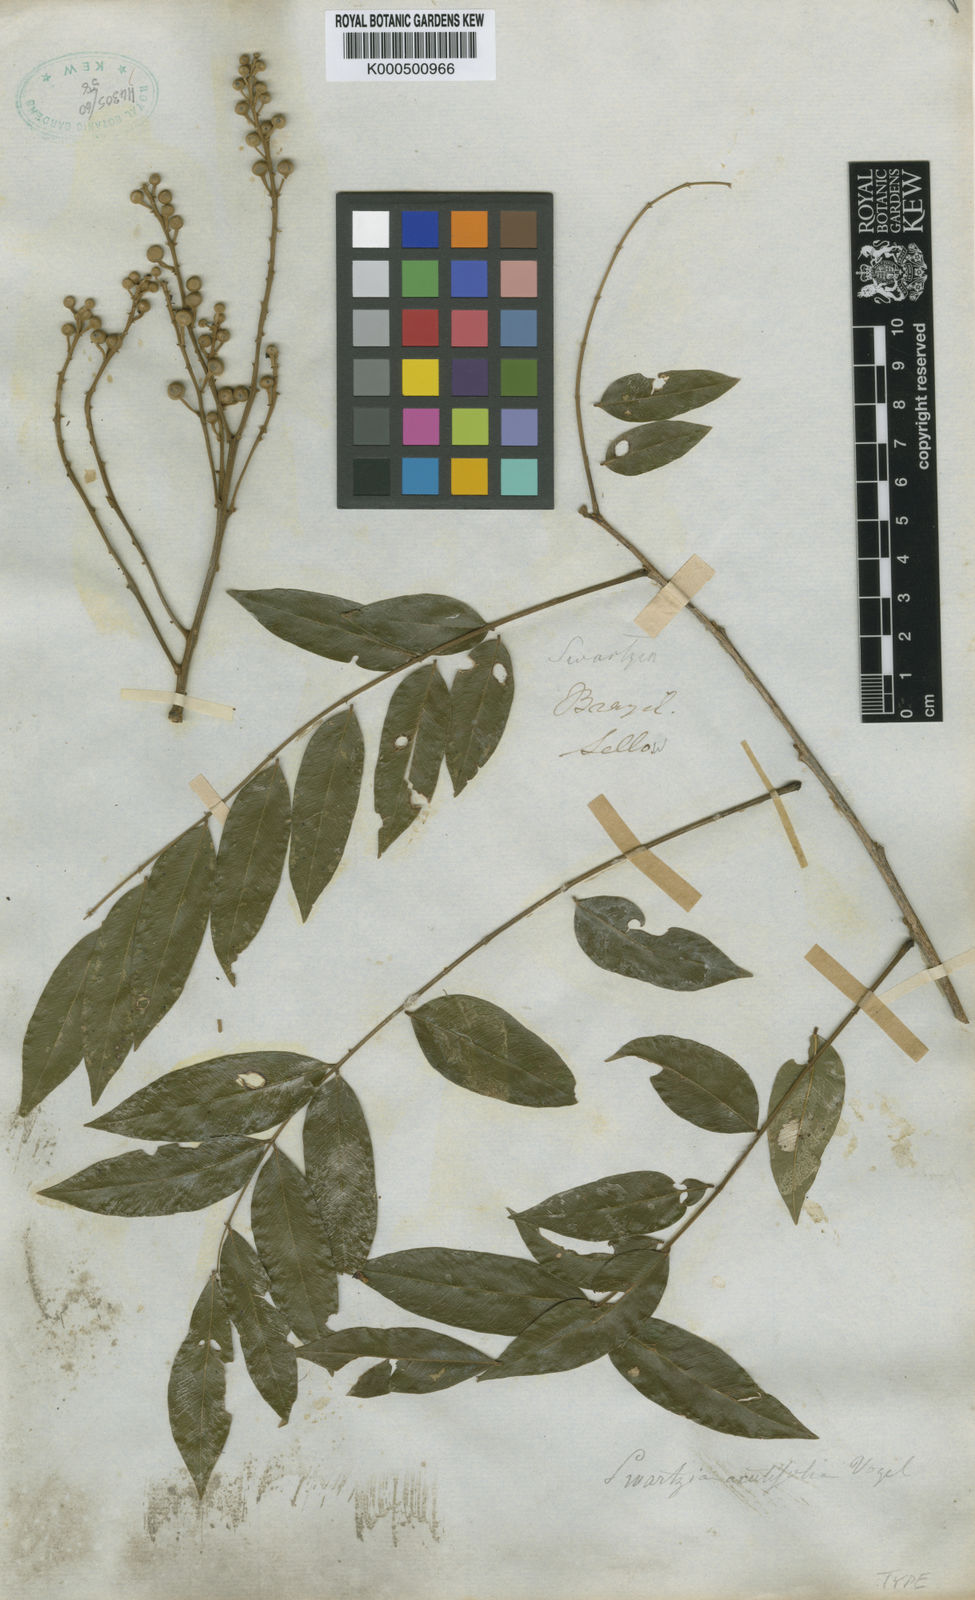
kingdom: Plantae
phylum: Tracheophyta
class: Magnoliopsida
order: Fabales
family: Fabaceae
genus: Swartzia
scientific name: Swartzia acutifolia
